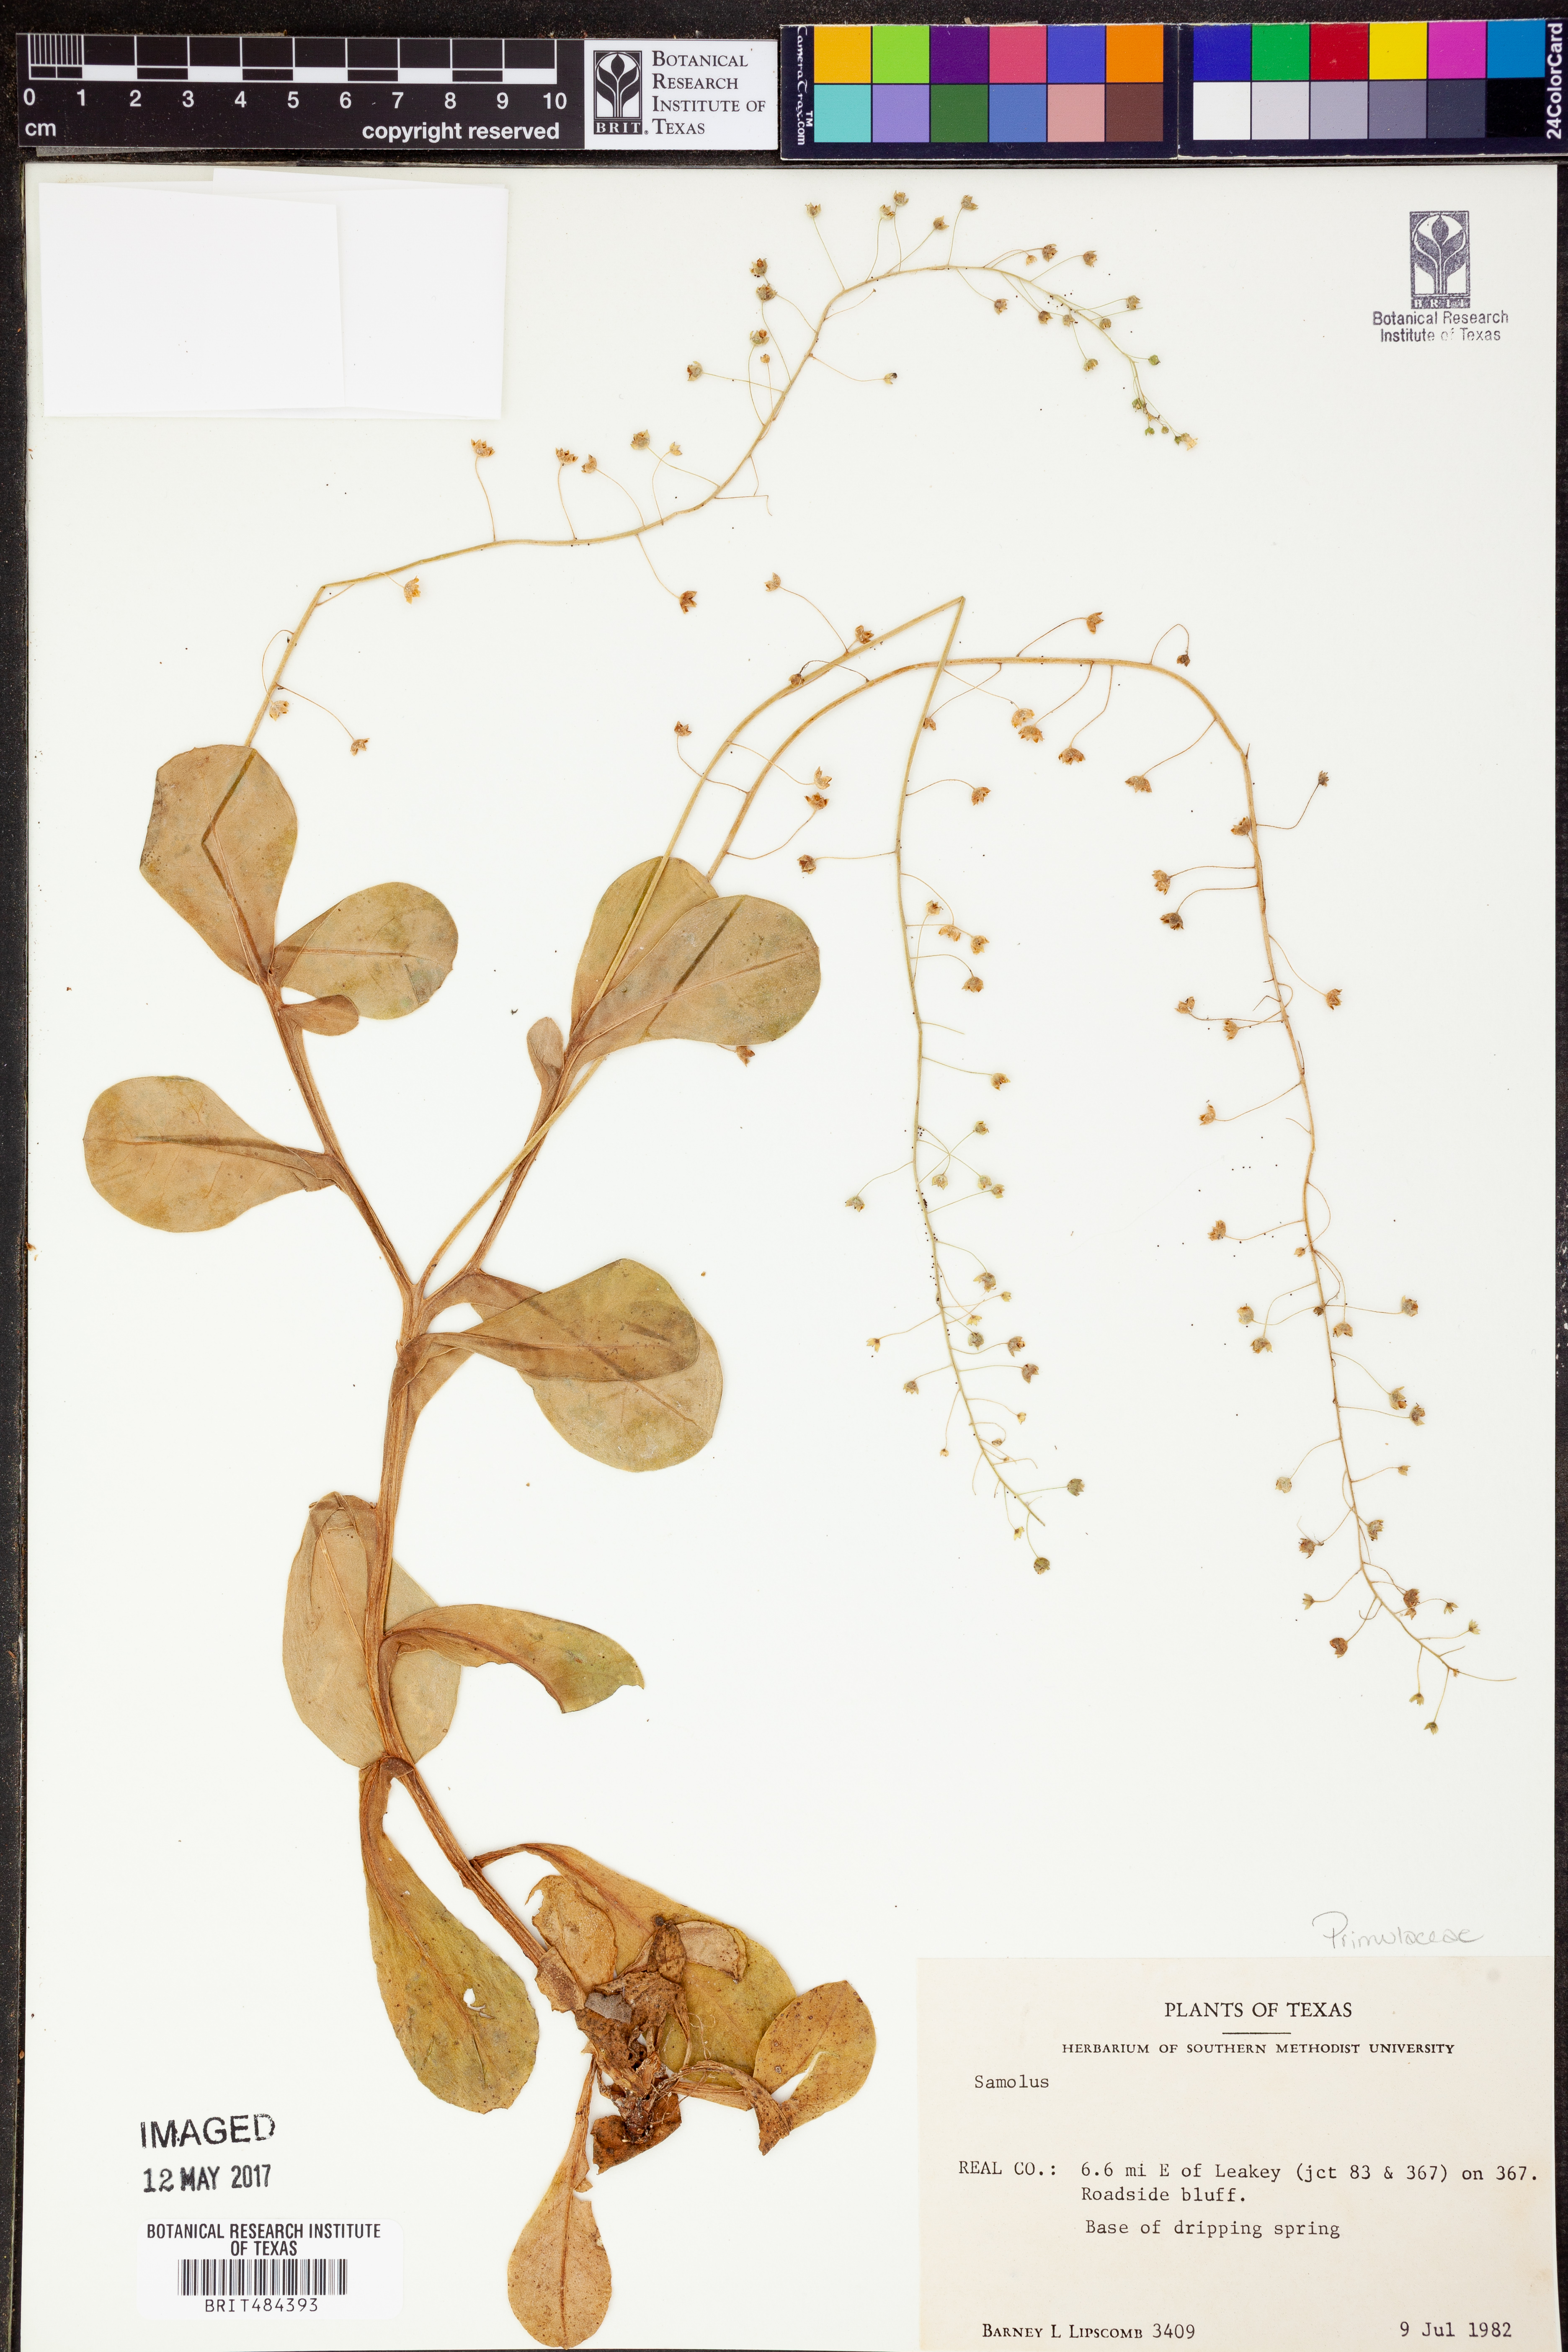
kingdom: Plantae
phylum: Tracheophyta
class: Magnoliopsida
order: Ericales
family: Primulaceae
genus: Samolus
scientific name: Samolus
